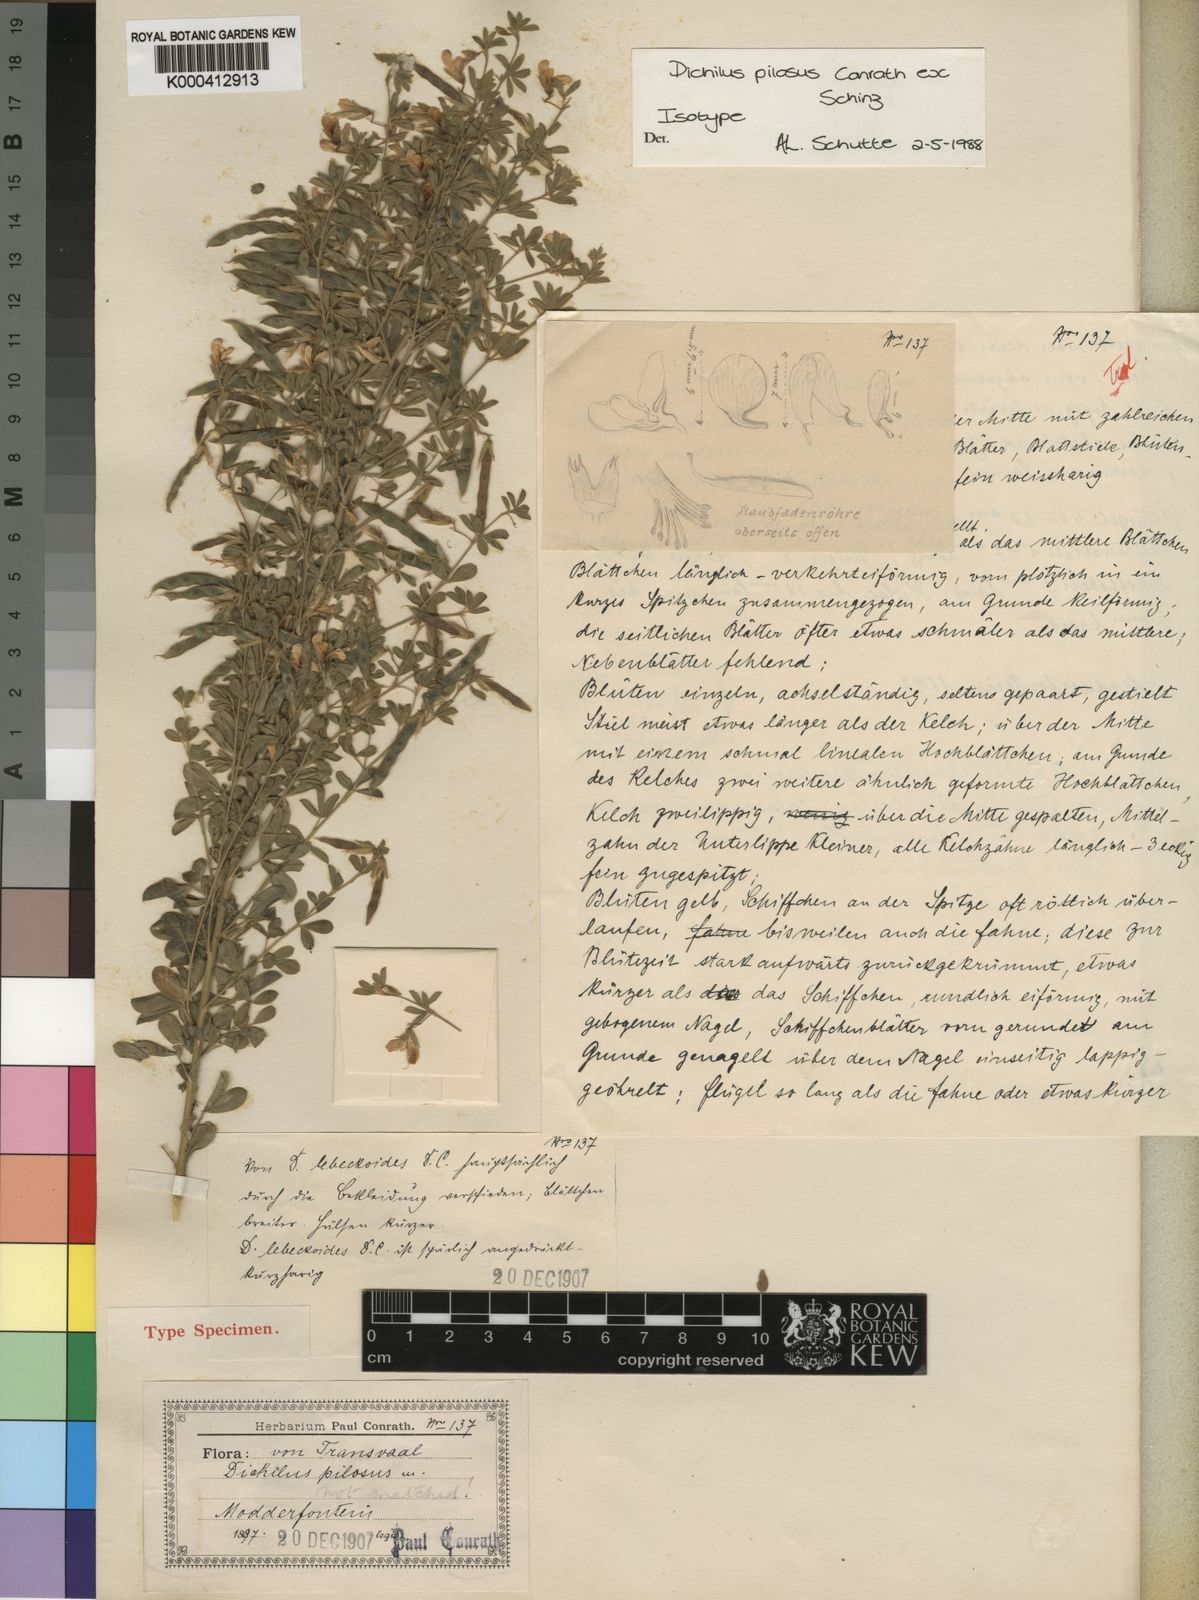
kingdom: Plantae
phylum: Tracheophyta
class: Magnoliopsida
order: Fabales
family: Fabaceae
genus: Dichilus
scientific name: Dichilus pilosus
